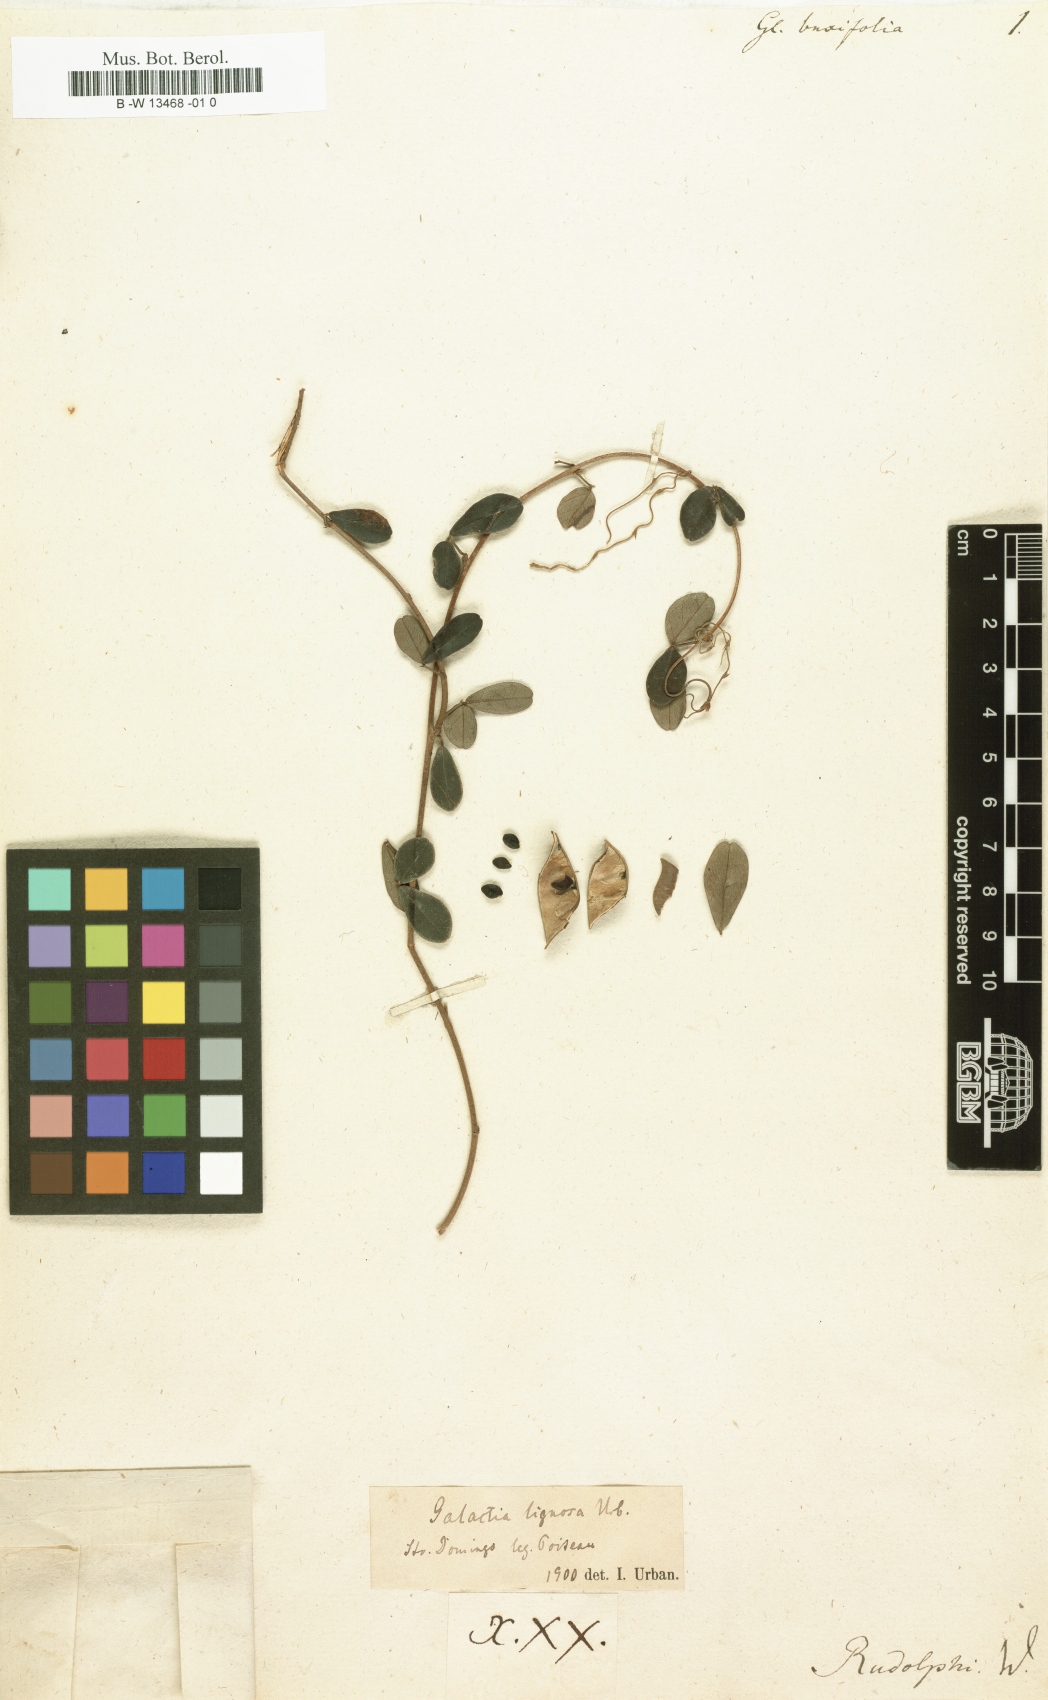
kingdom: Plantae
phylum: Tracheophyta
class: Magnoliopsida
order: Fabales
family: Fabaceae
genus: Glycine
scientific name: Glycine
